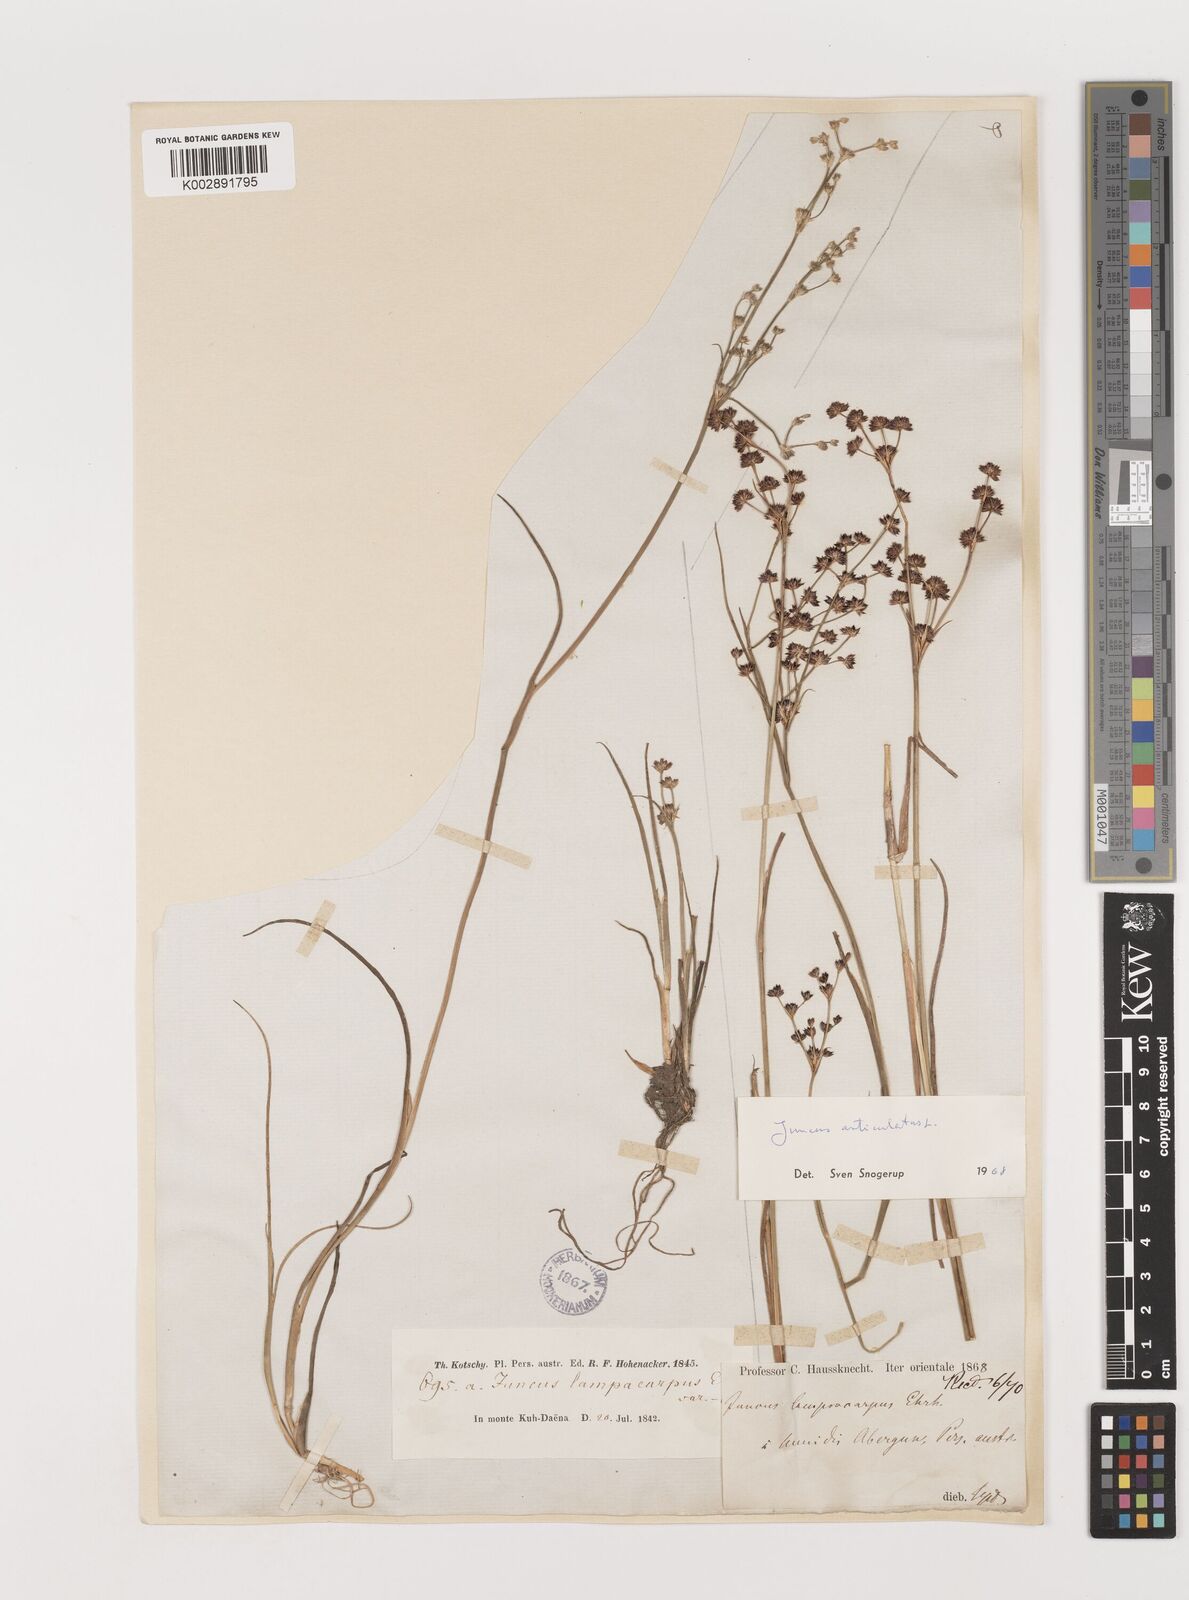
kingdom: Plantae
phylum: Tracheophyta
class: Liliopsida
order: Poales
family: Juncaceae
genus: Juncus
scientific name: Juncus articulatus
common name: Jointed rush
